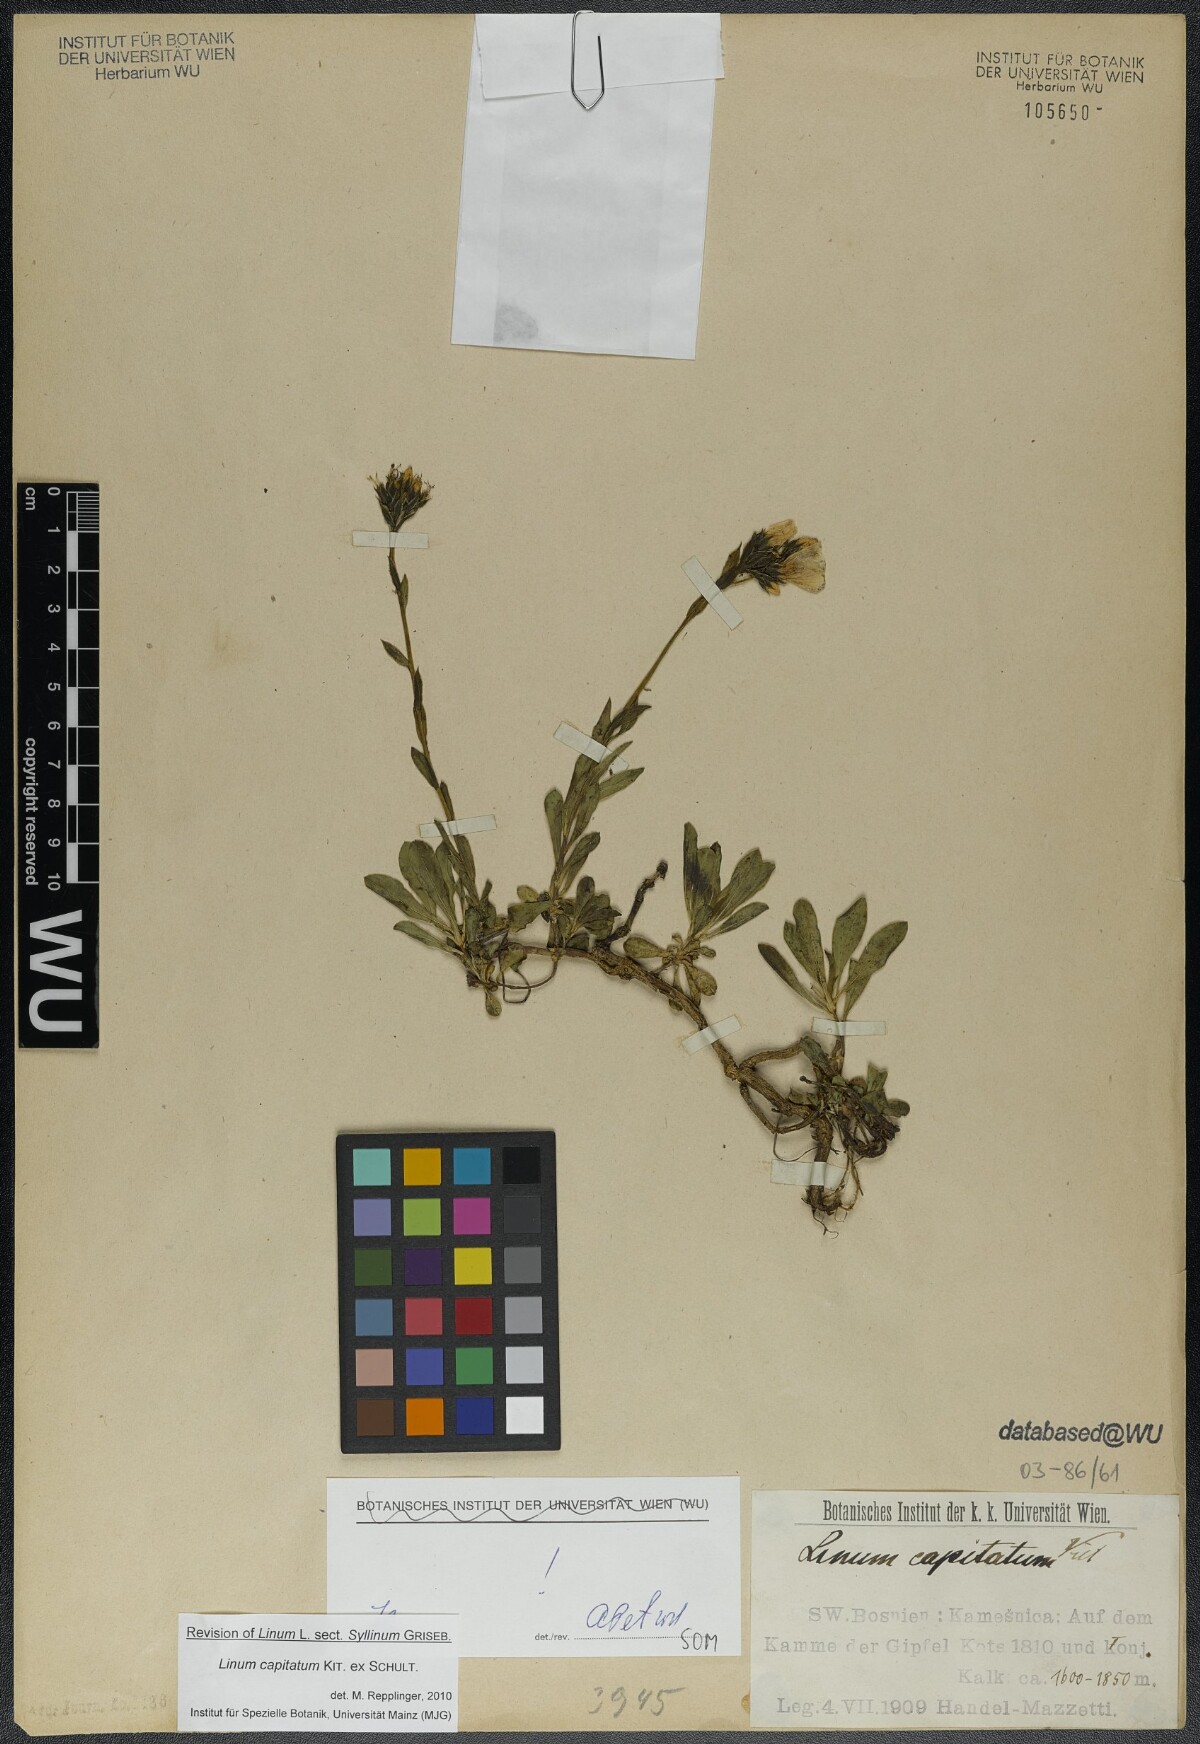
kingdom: Plantae
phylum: Tracheophyta
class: Magnoliopsida
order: Malpighiales
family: Linaceae
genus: Linum
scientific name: Linum capitatum
